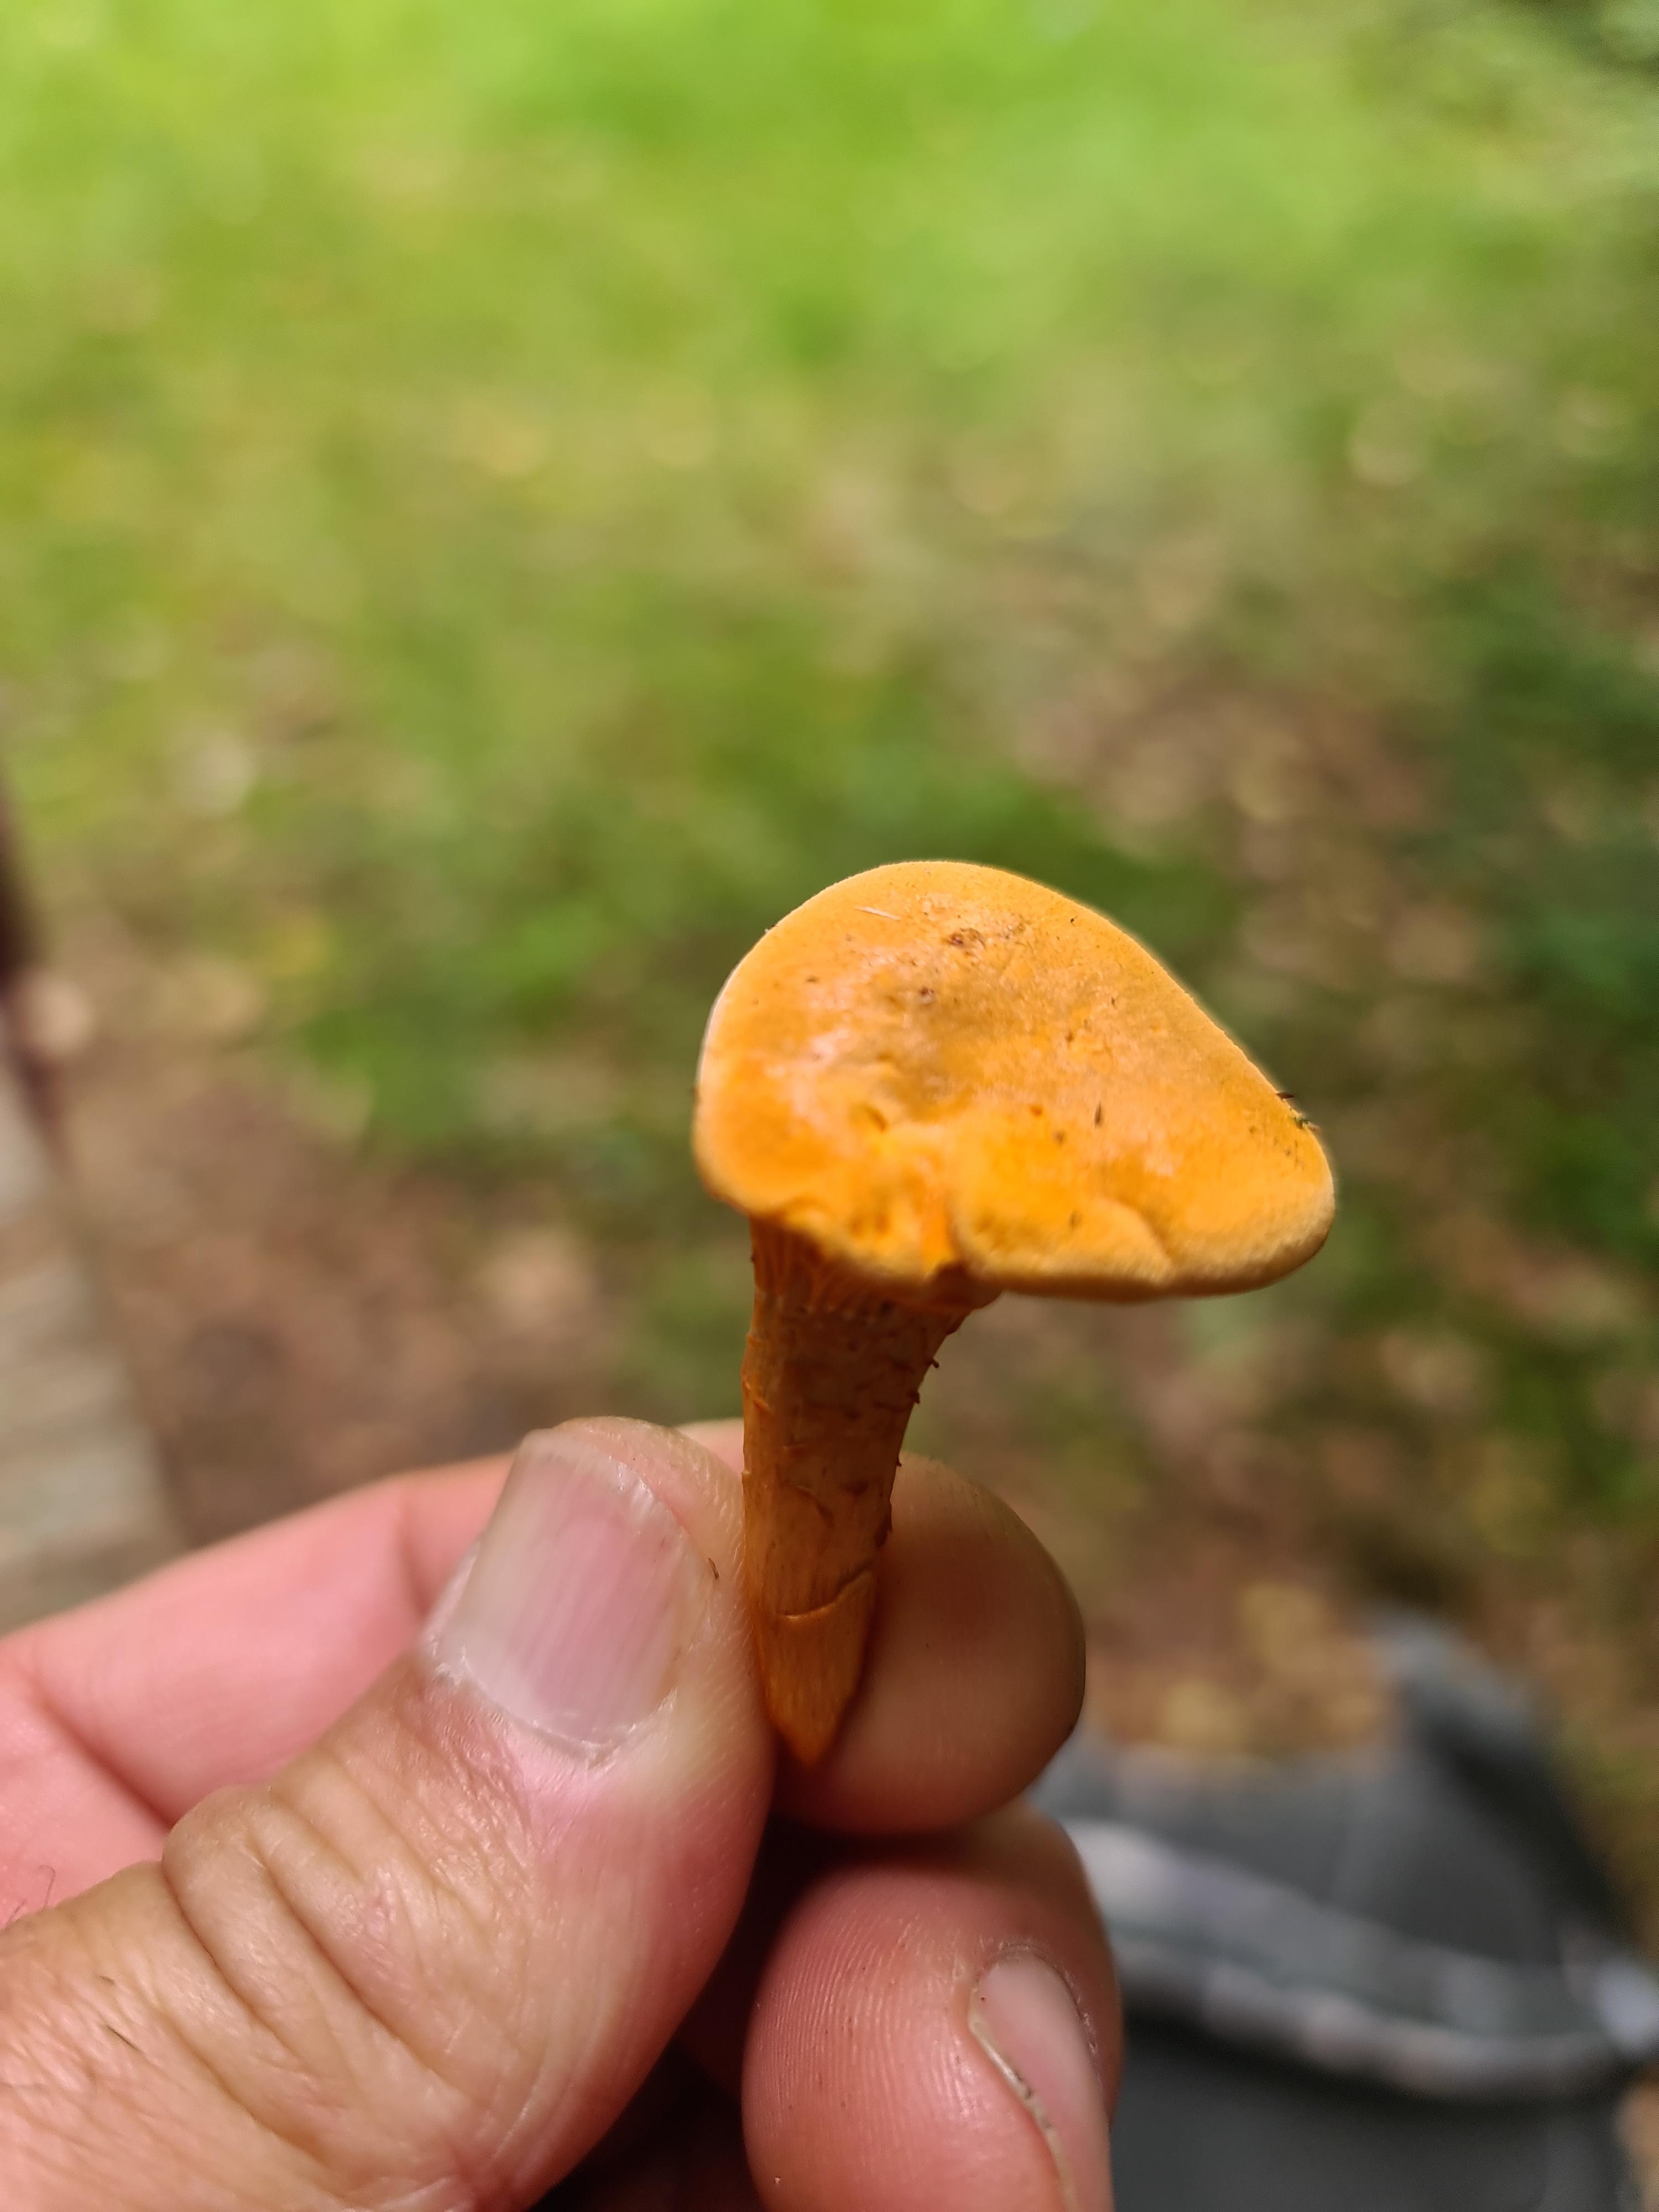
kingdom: Fungi
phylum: Basidiomycota
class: Agaricomycetes
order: Boletales
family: Hygrophoropsidaceae
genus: Hygrophoropsis
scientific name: Hygrophoropsis aurantiaca
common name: almindelig orangekantarel
